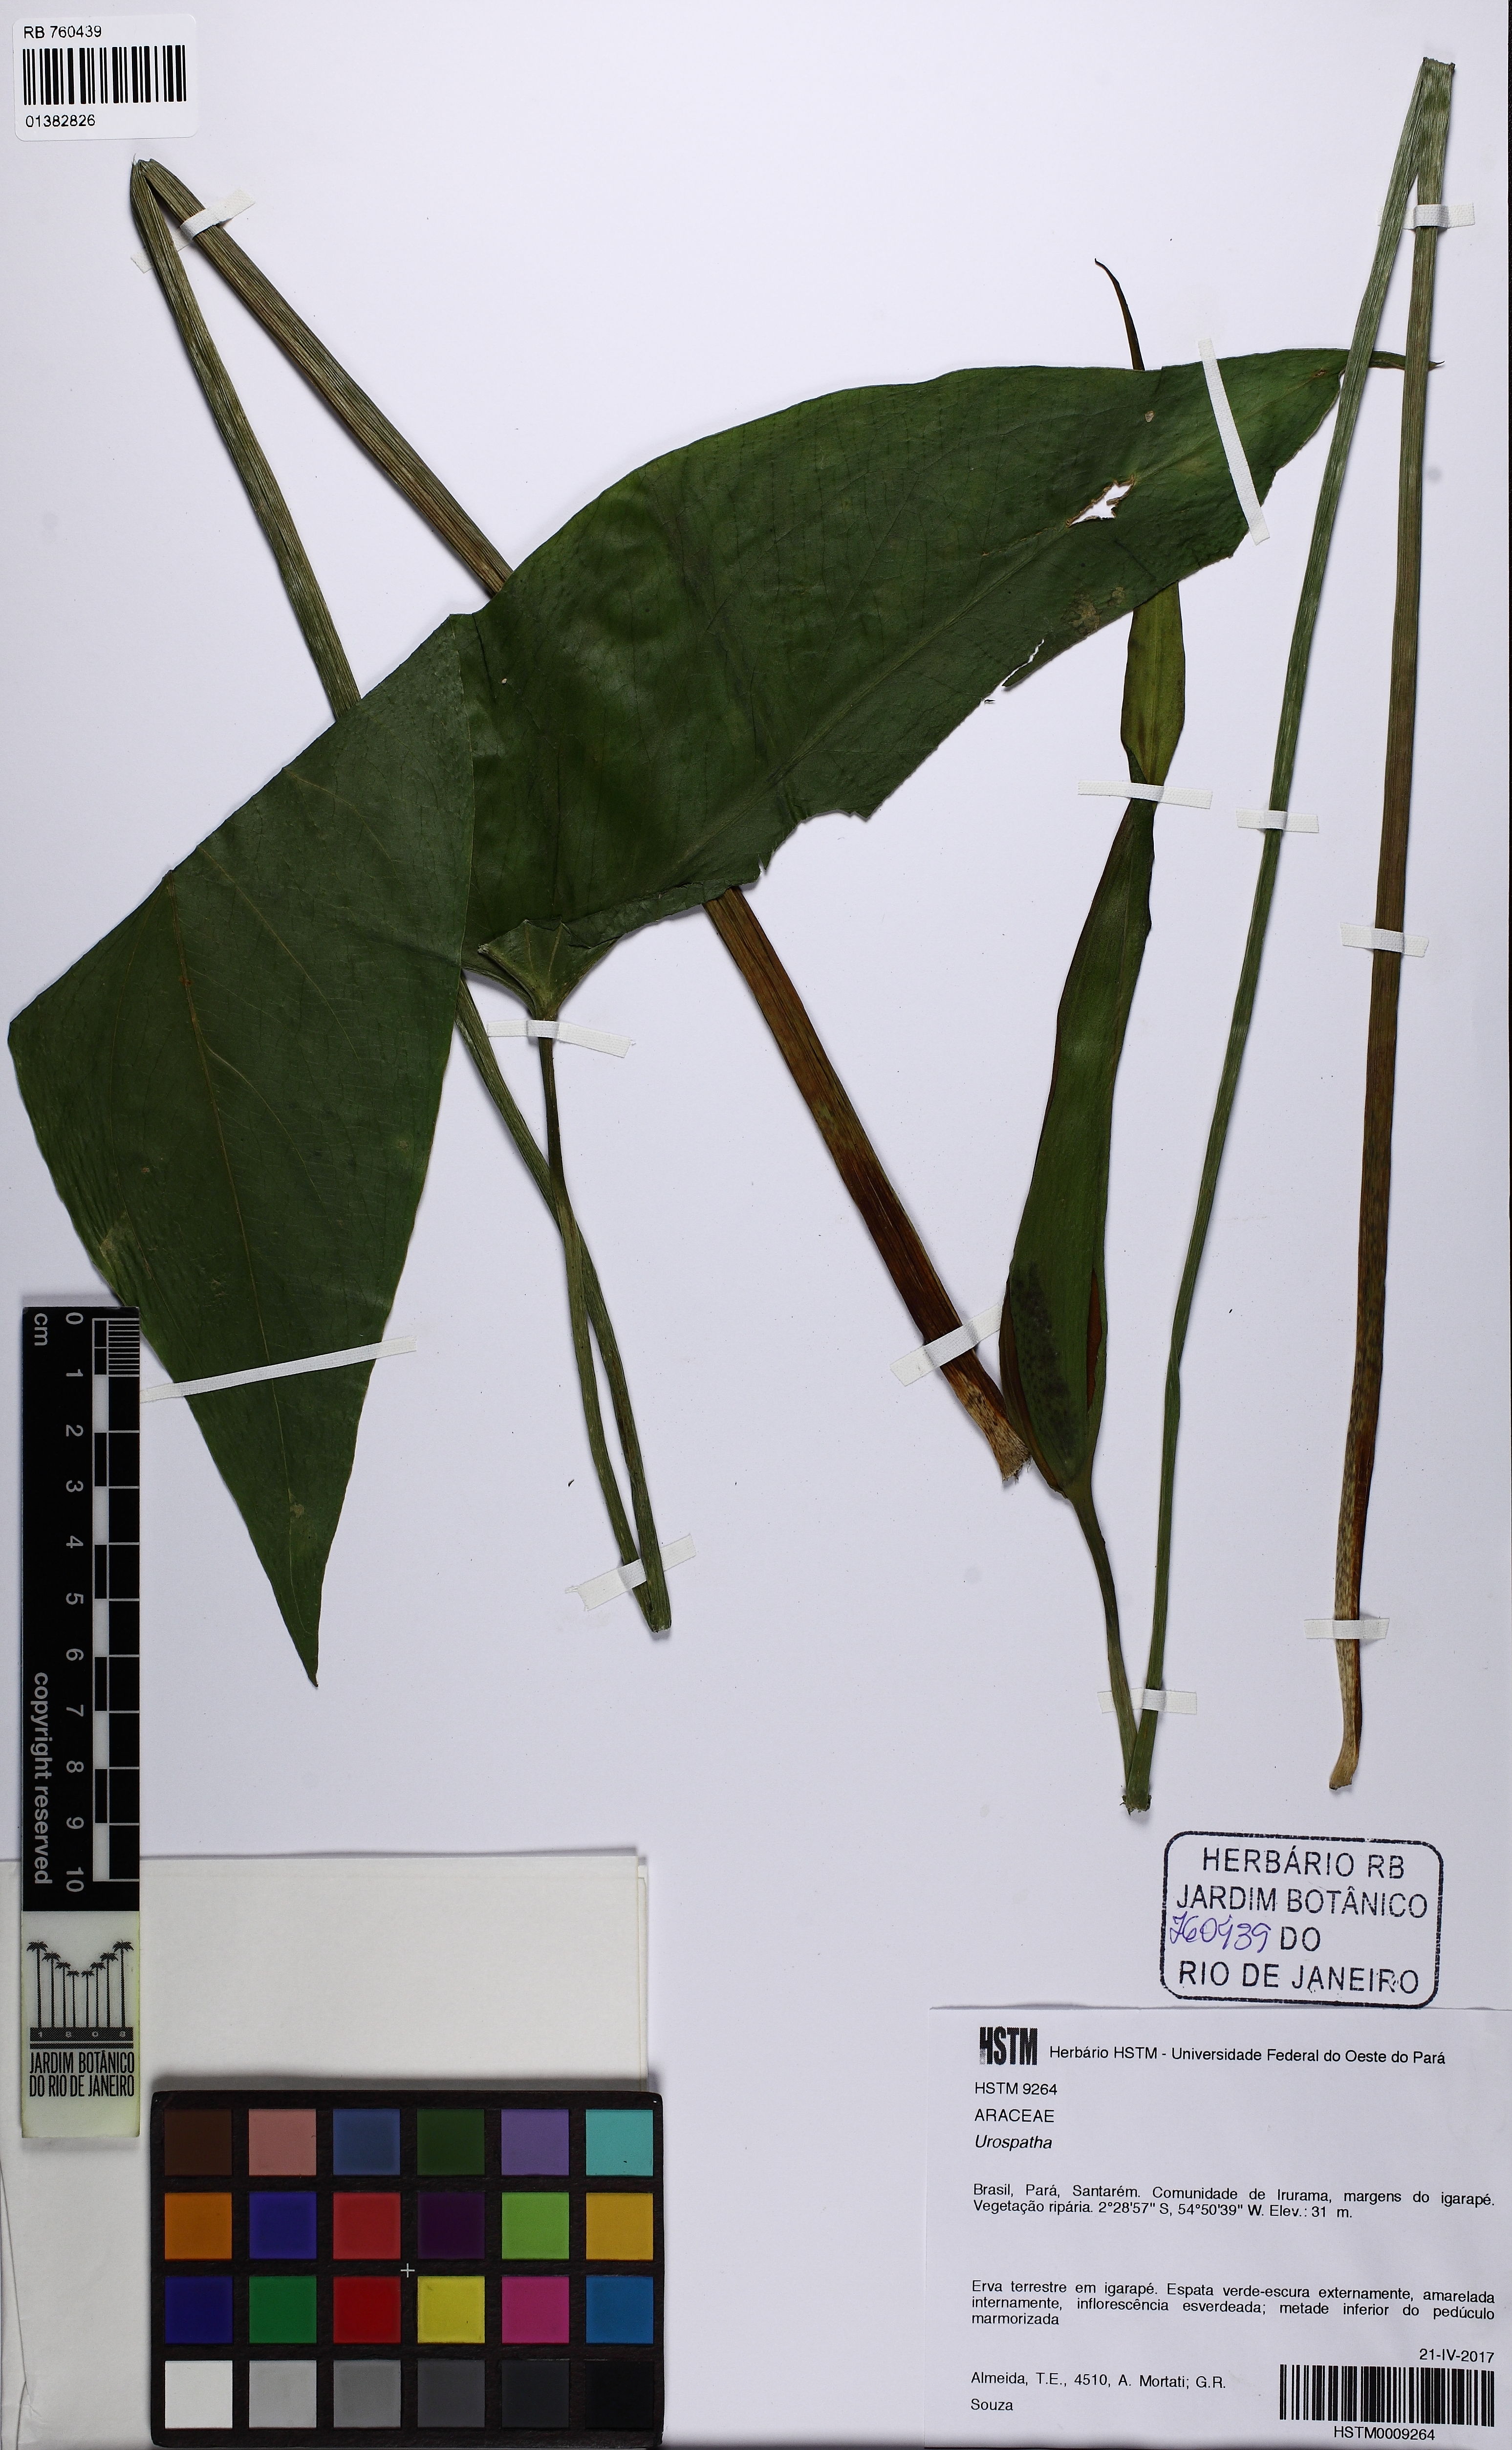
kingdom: Plantae
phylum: Tracheophyta
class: Liliopsida
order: Alismatales
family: Araceae
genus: Urospatha
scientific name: Urospatha sagittifolia
